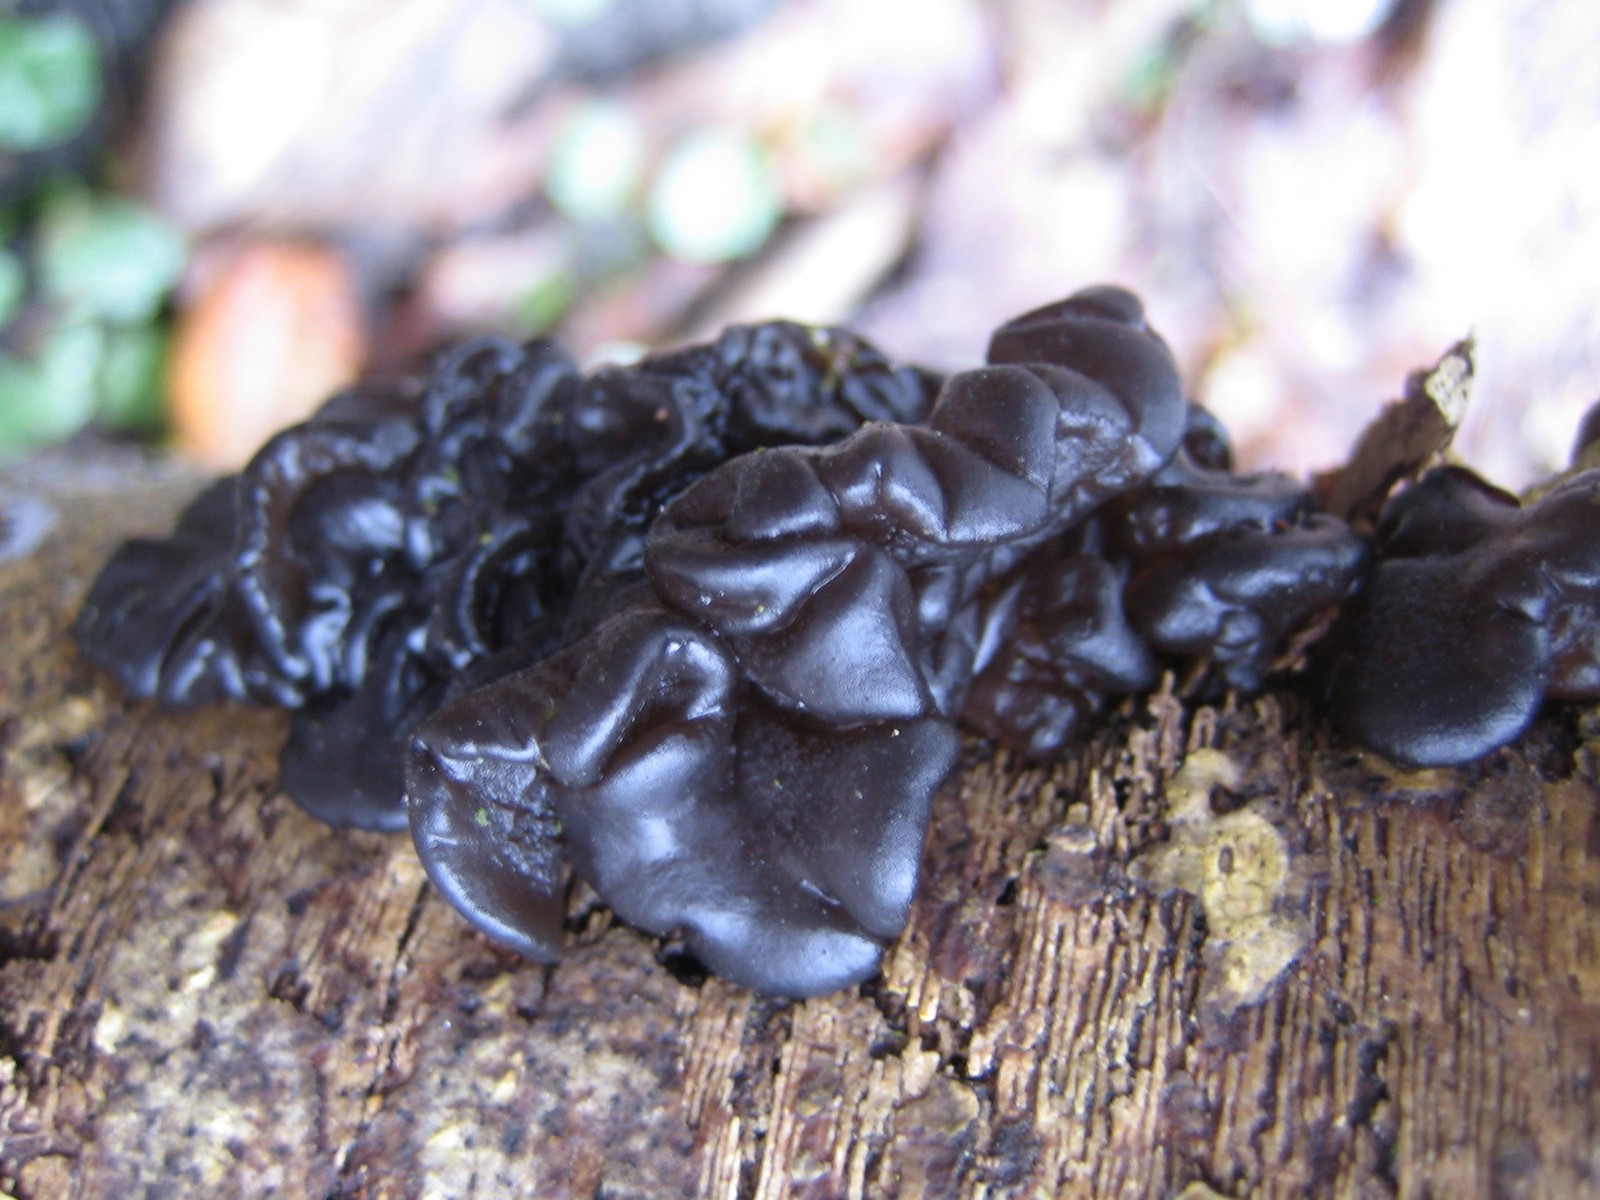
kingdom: Fungi
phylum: Basidiomycota
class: Agaricomycetes
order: Auriculariales
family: Auriculariaceae
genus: Exidia
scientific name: Exidia nigricans
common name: almindelig bævretop
